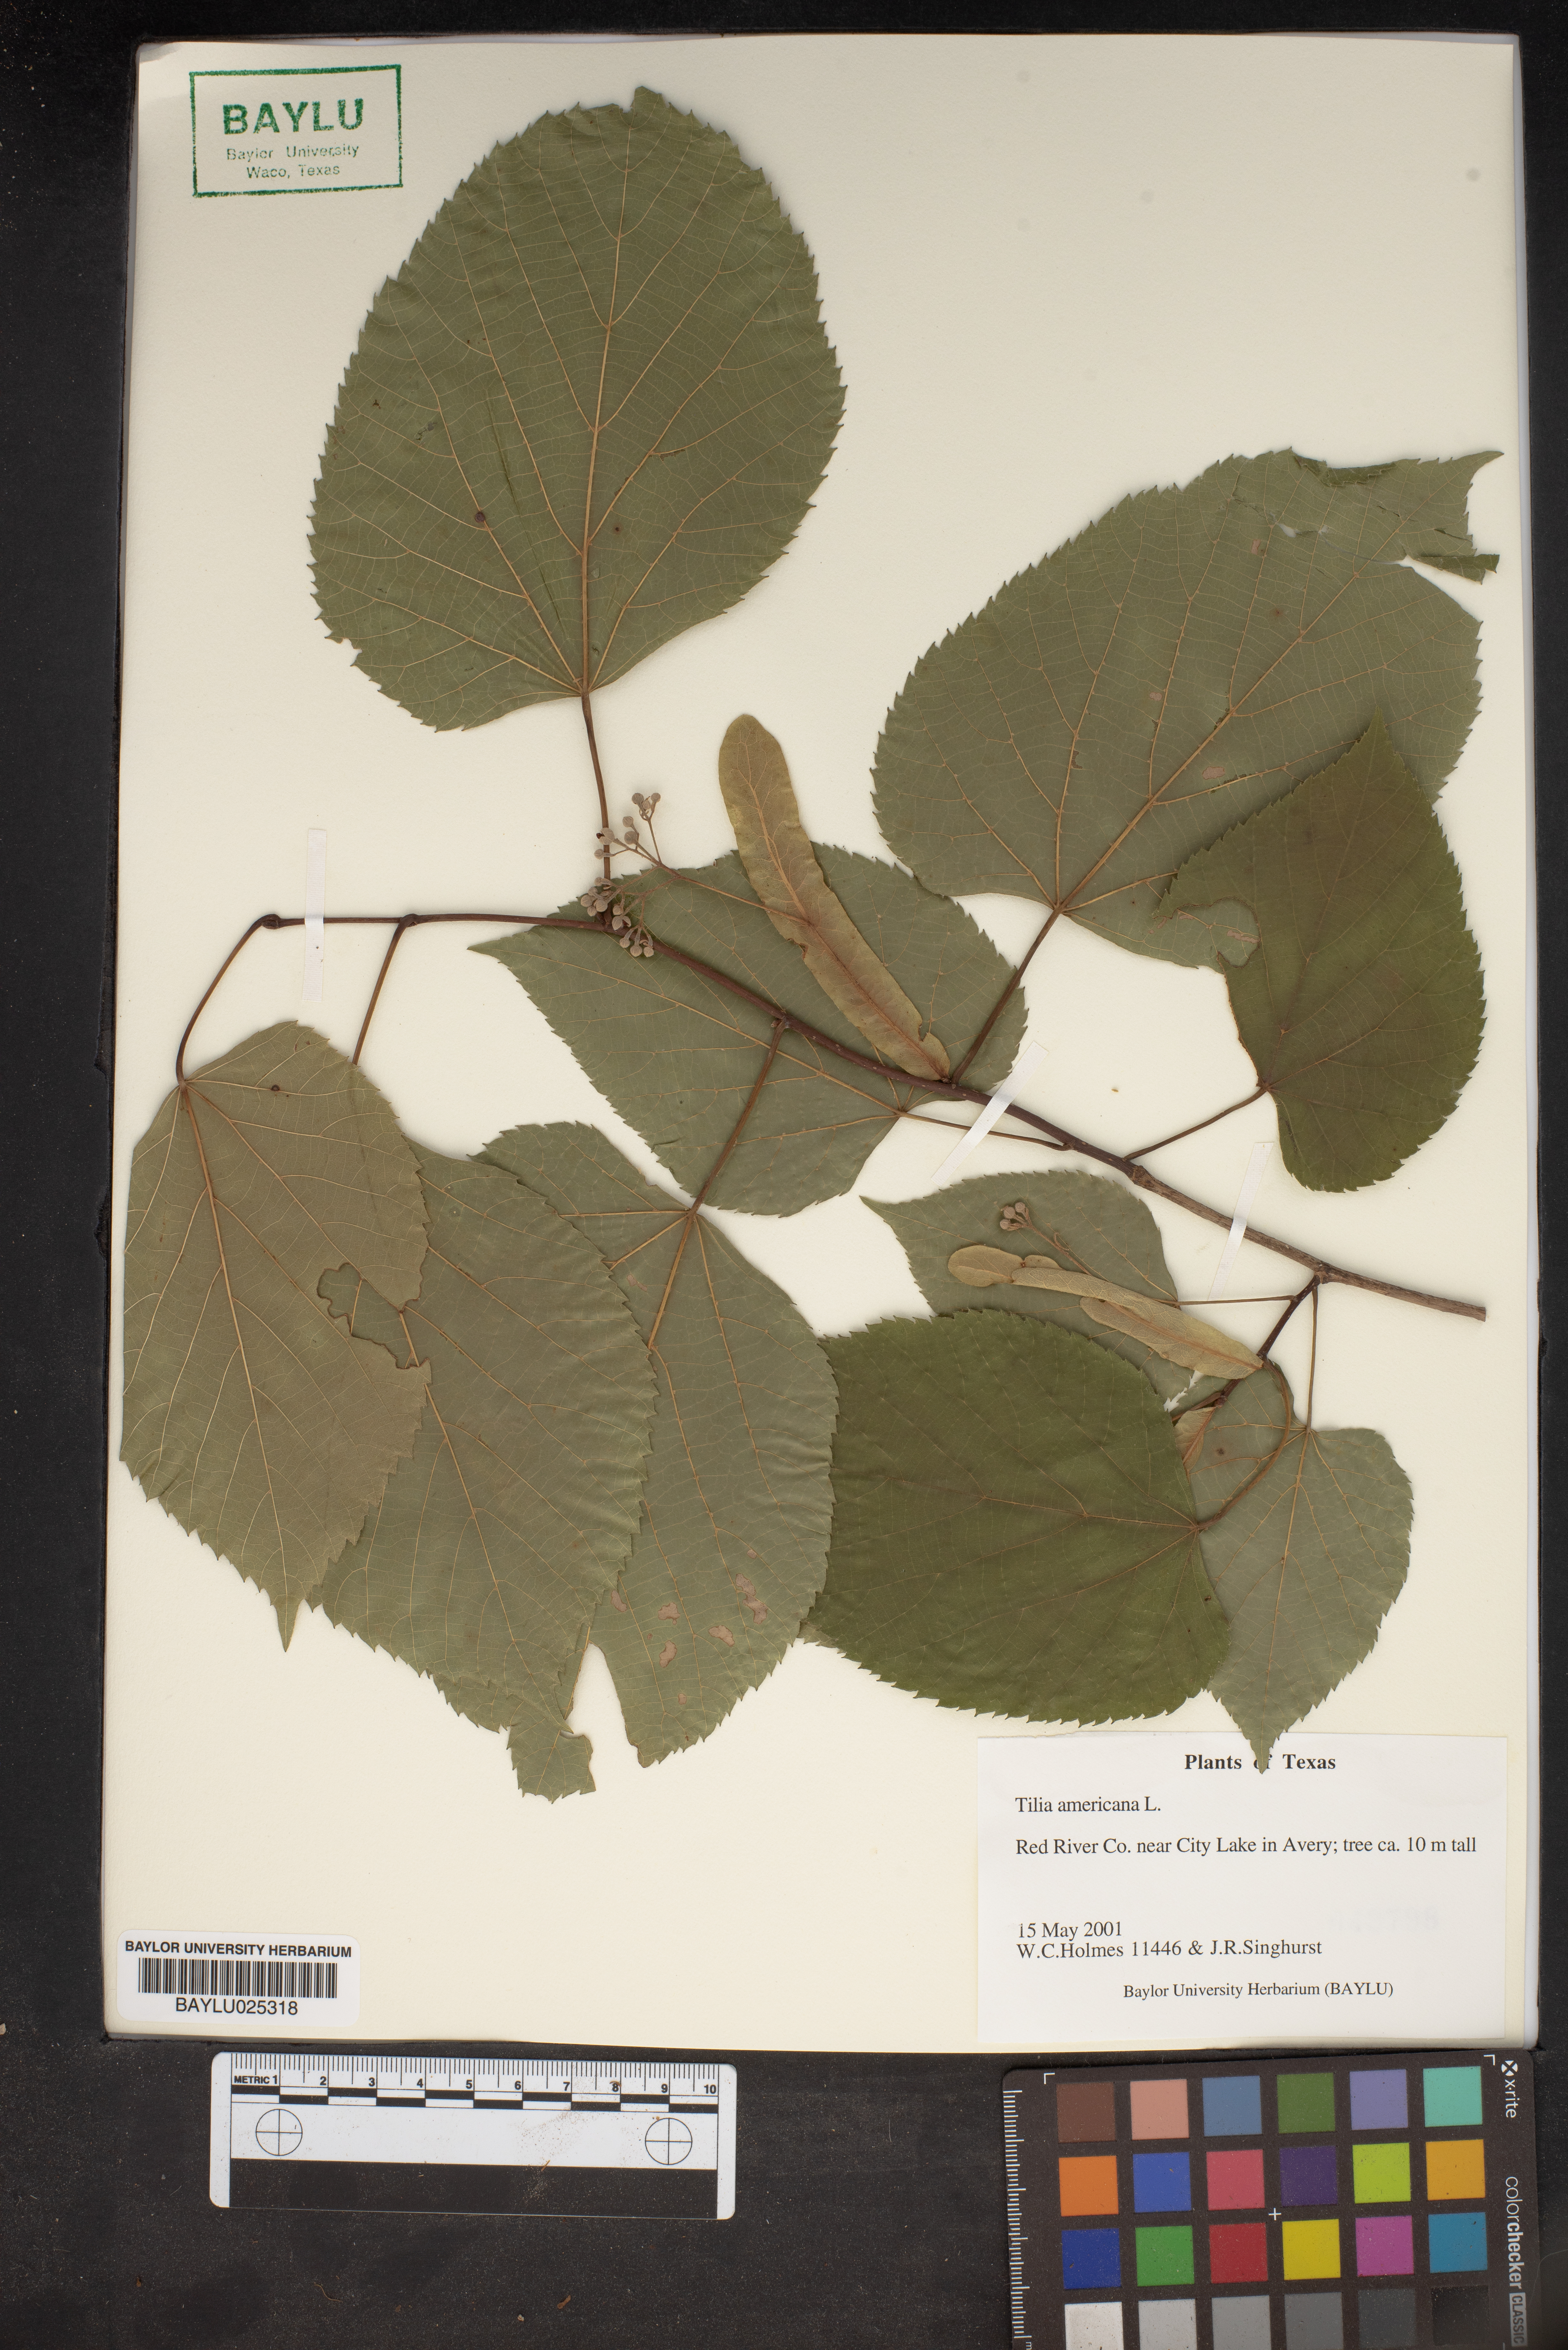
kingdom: Plantae
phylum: Tracheophyta
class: Magnoliopsida
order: Malvales
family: Malvaceae
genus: Tilia
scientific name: Tilia americana
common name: Basswood
